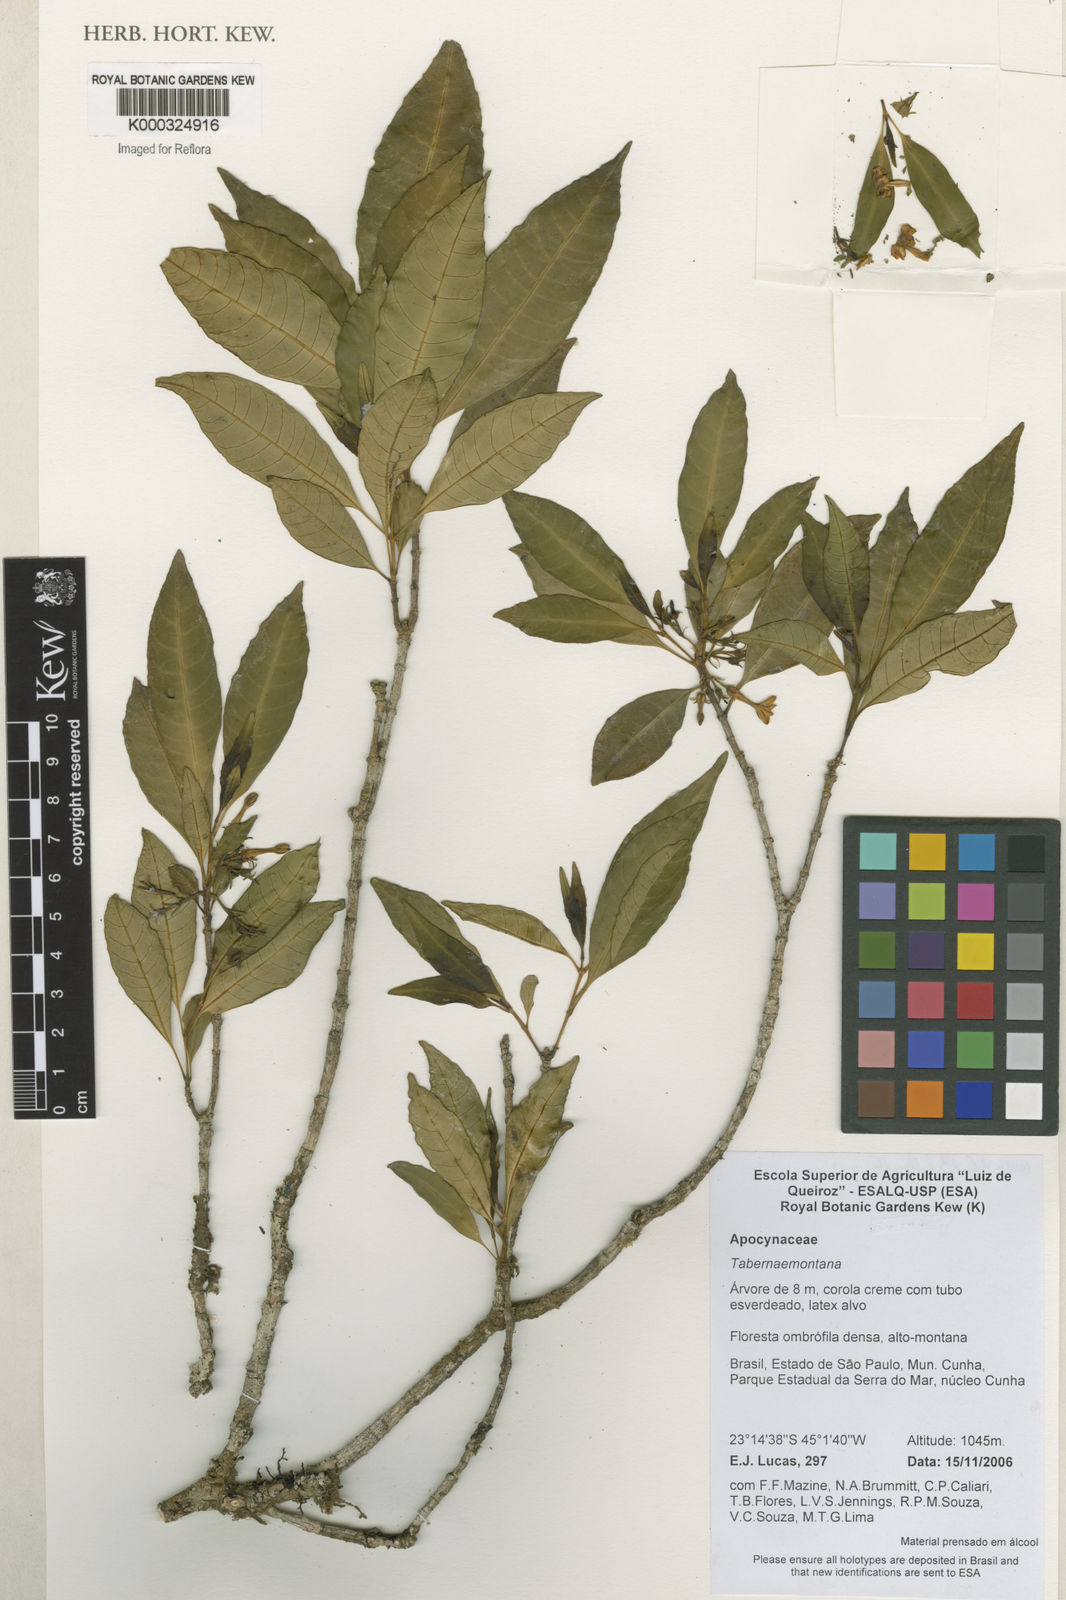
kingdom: Plantae
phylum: Tracheophyta
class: Magnoliopsida
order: Gentianales
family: Apocynaceae
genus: Tabernaemontana
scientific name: Tabernaemontana
